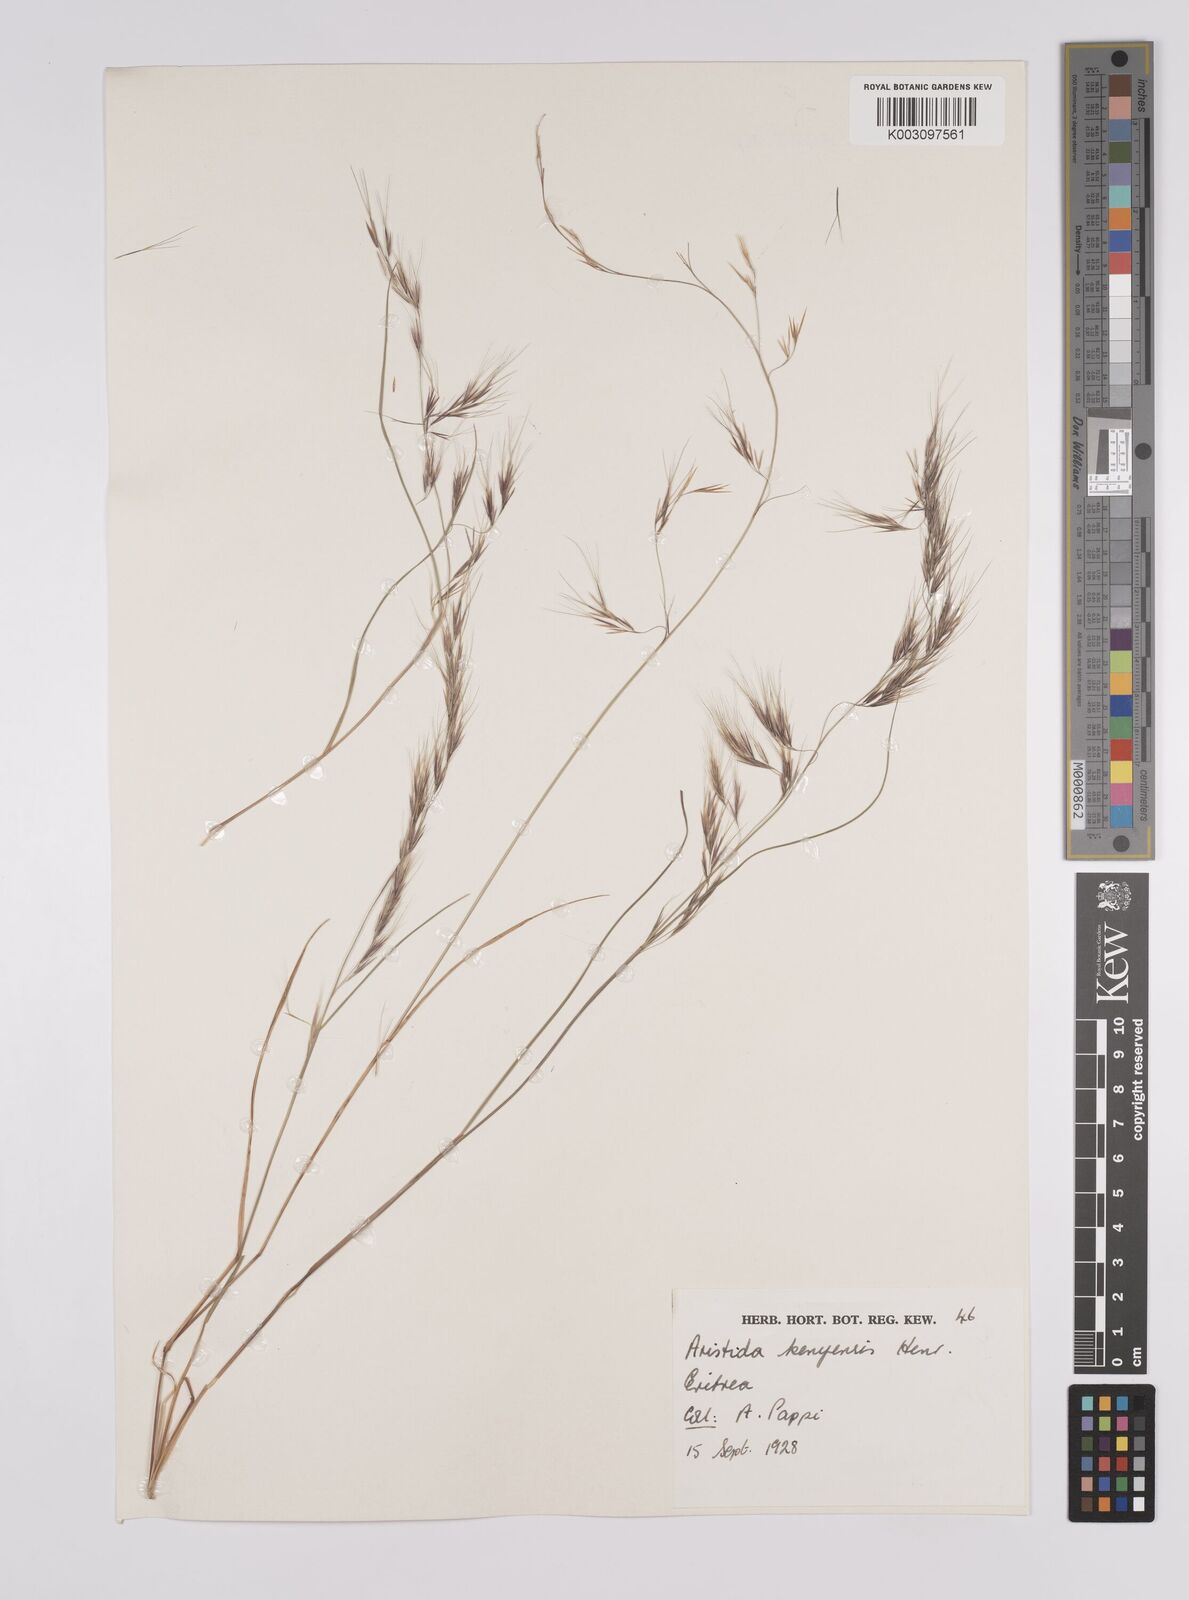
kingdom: Plantae
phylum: Tracheophyta
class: Liliopsida
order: Poales
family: Poaceae
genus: Aristida
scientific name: Aristida kenyensis
